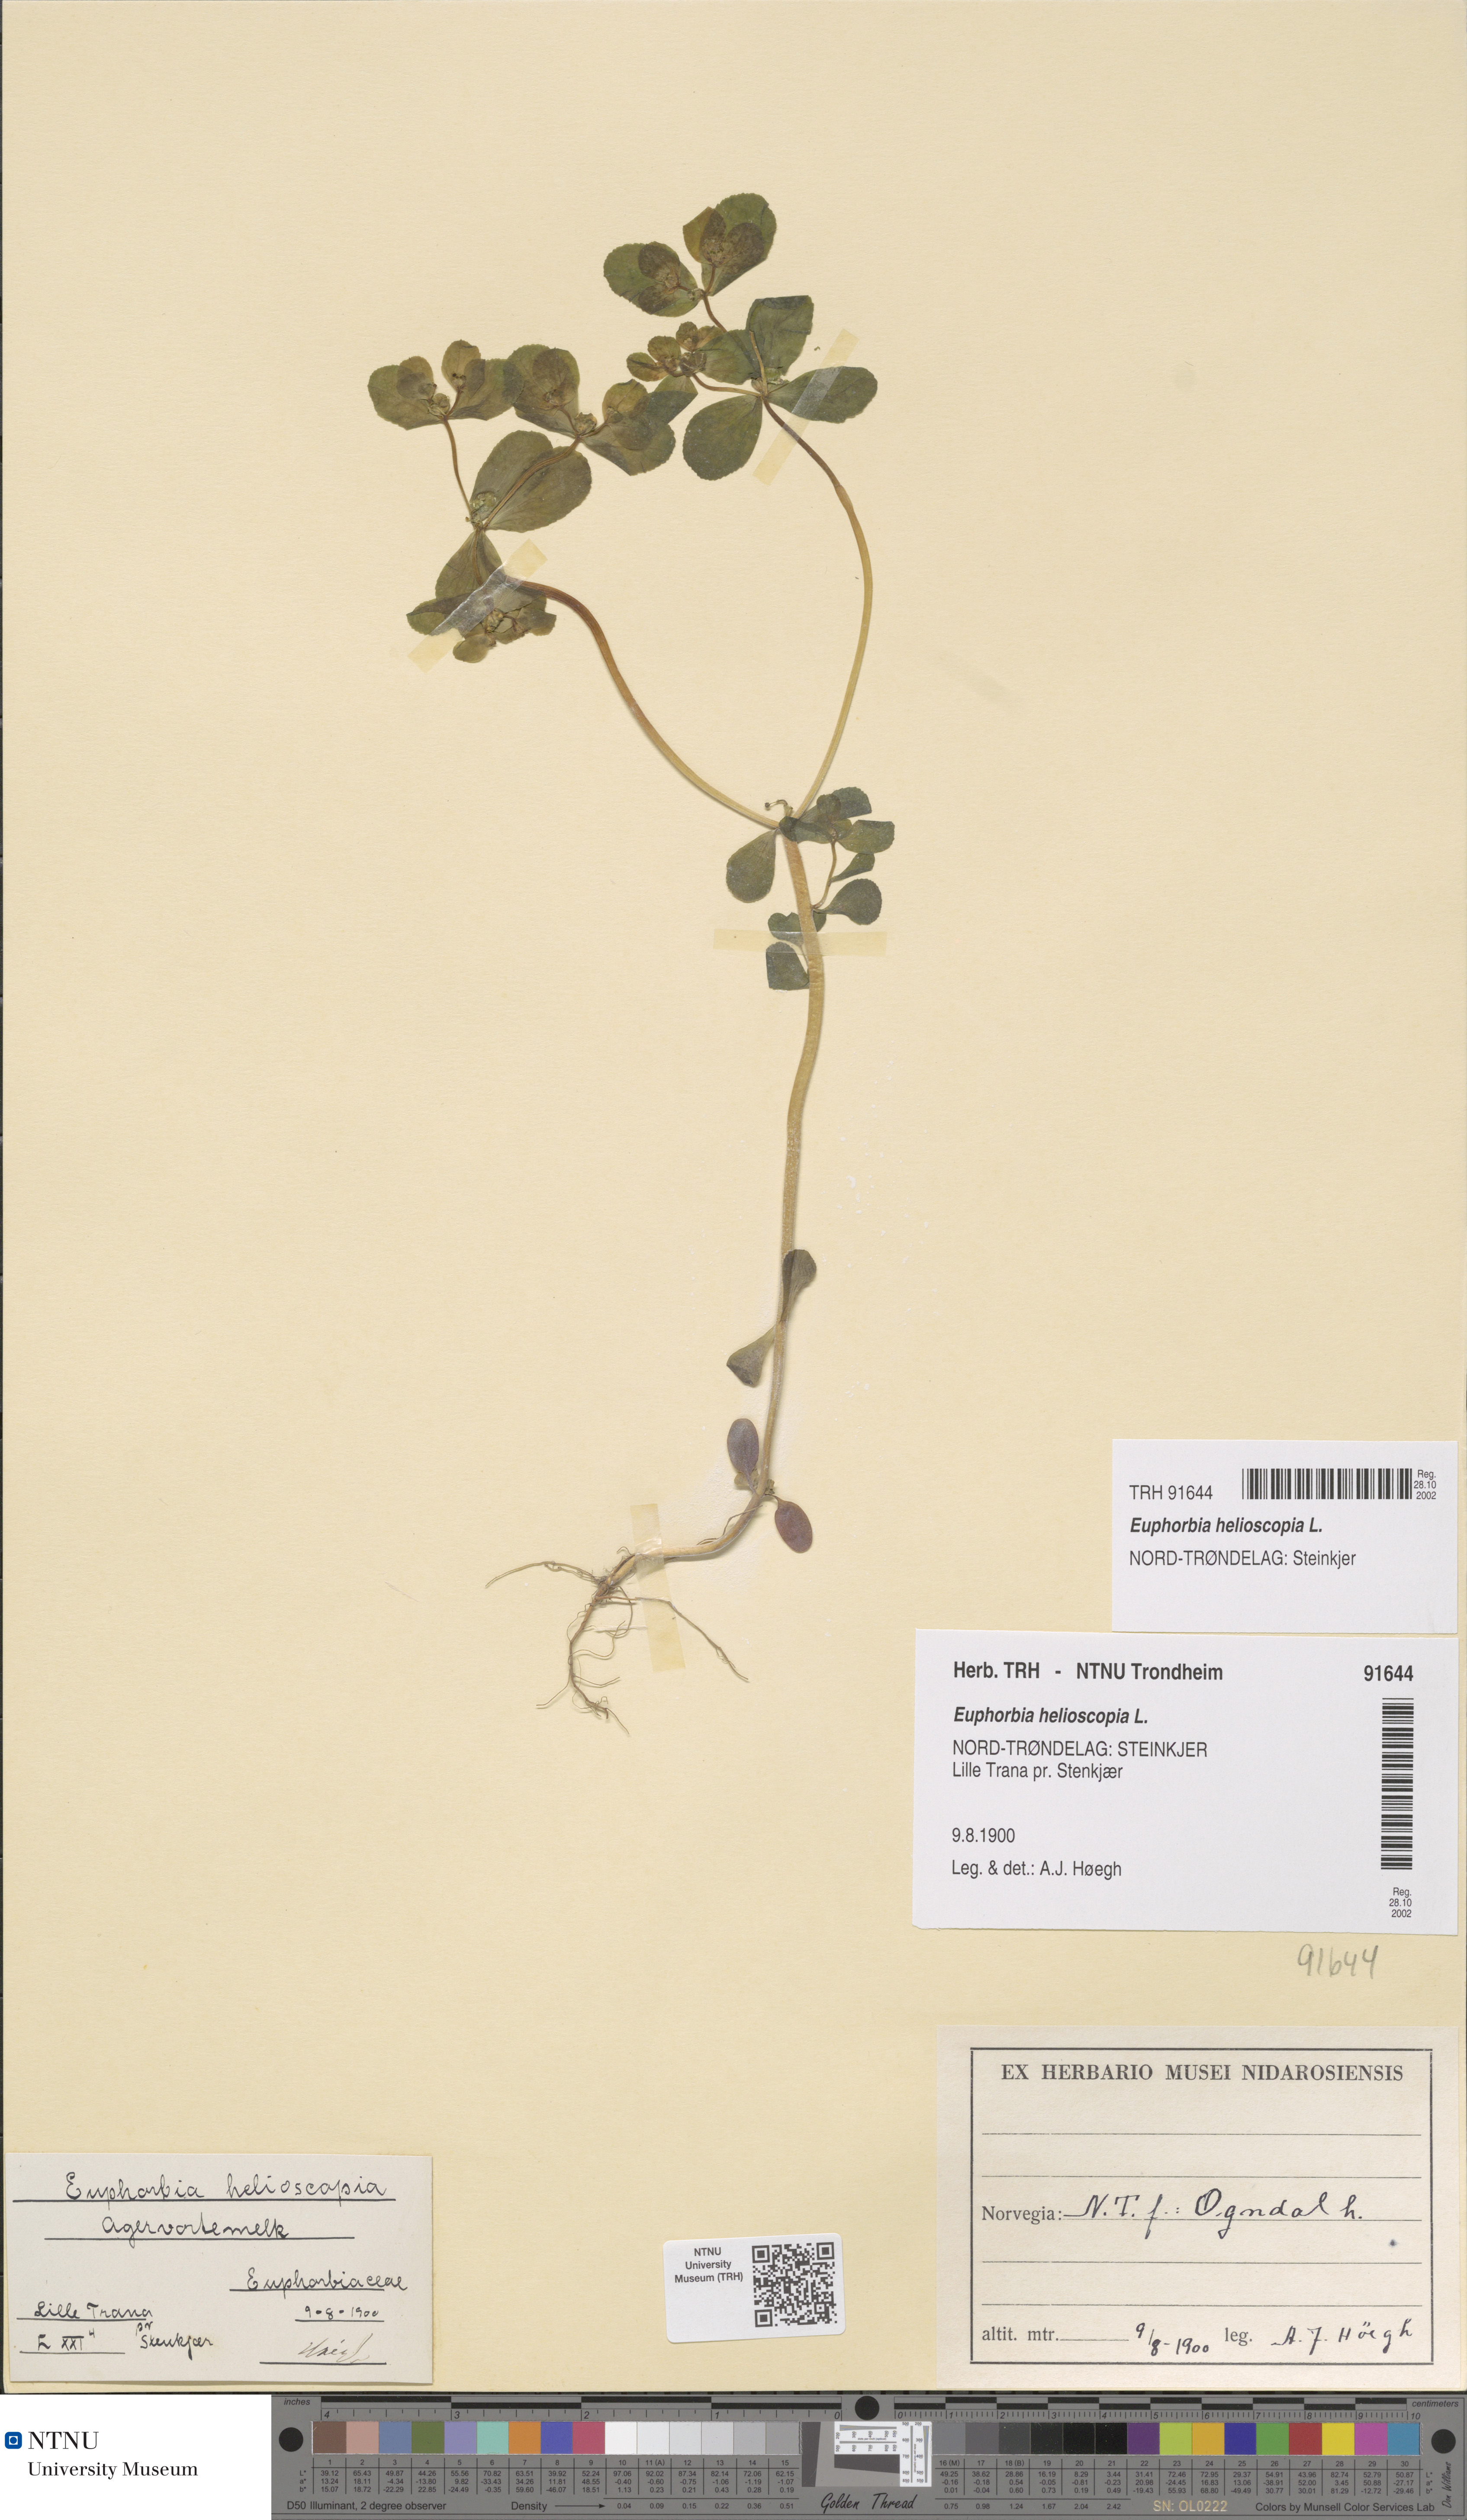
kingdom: Plantae
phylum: Tracheophyta
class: Magnoliopsida
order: Malpighiales
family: Euphorbiaceae
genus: Euphorbia
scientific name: Euphorbia helioscopia
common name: Sun spurge
